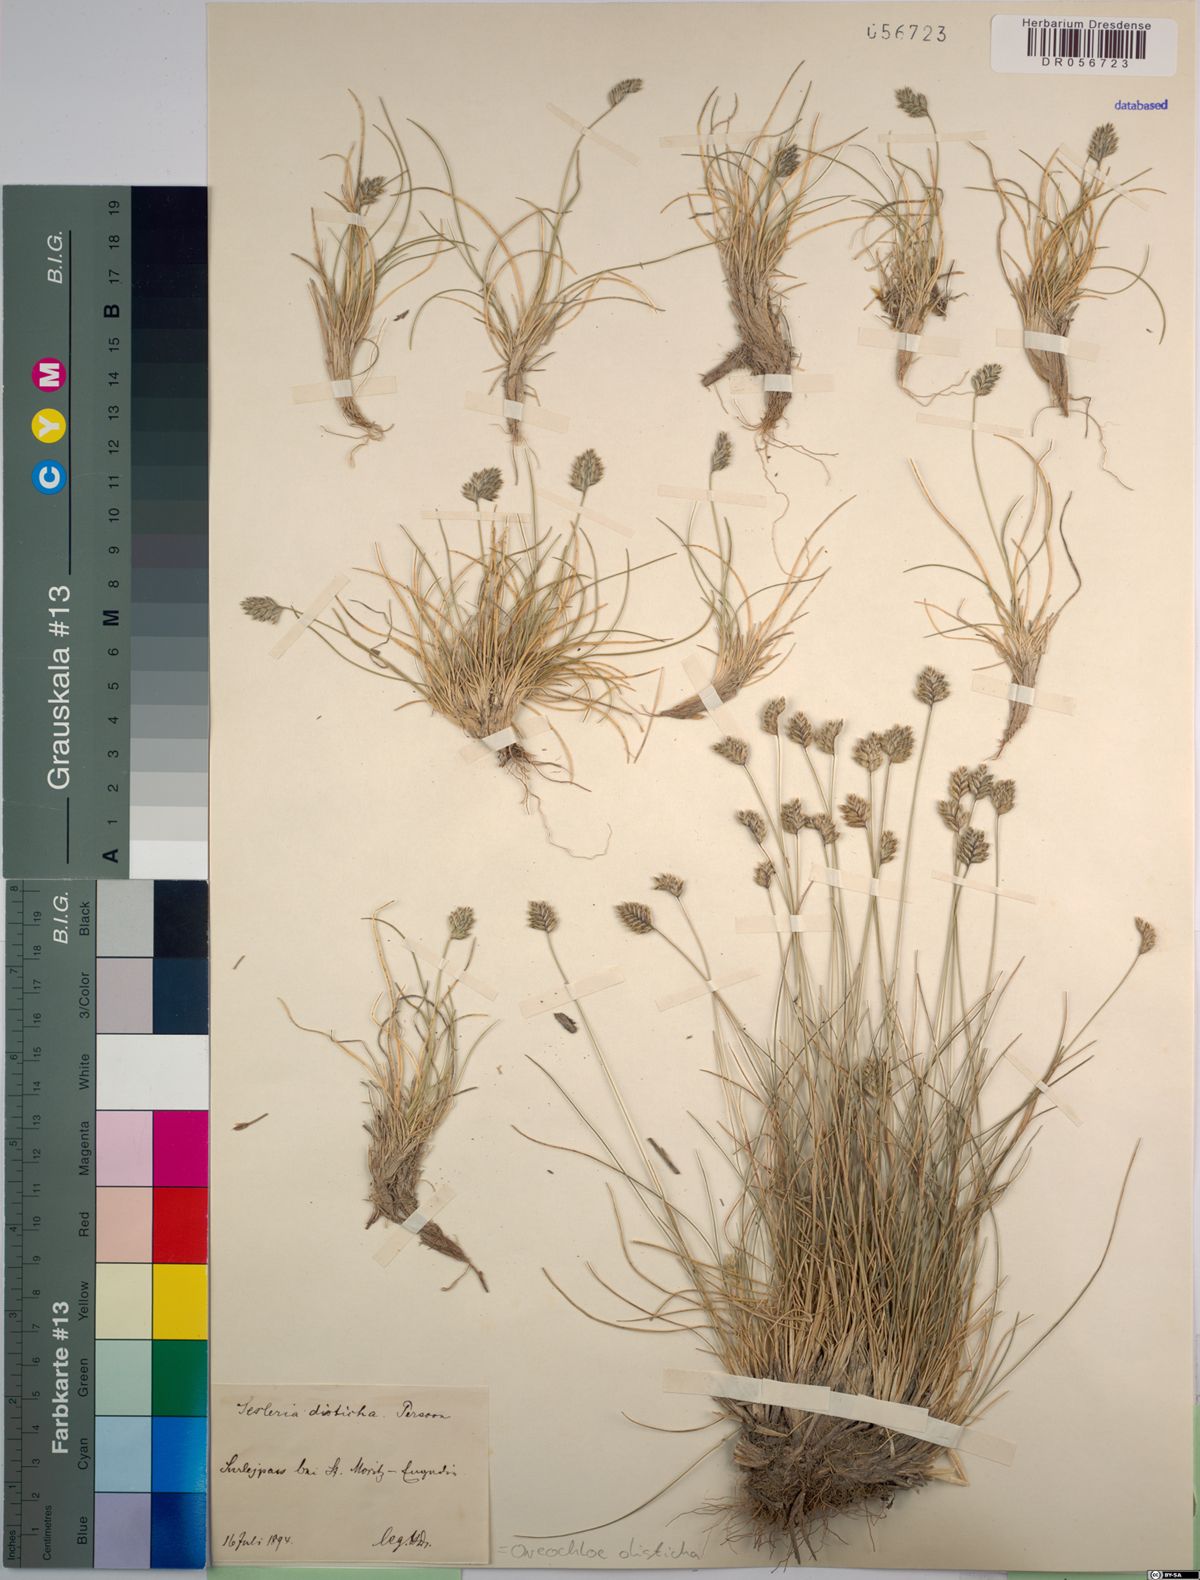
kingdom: Plantae
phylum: Tracheophyta
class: Liliopsida
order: Poales
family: Poaceae
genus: Oreochloa
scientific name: Oreochloa disticha
